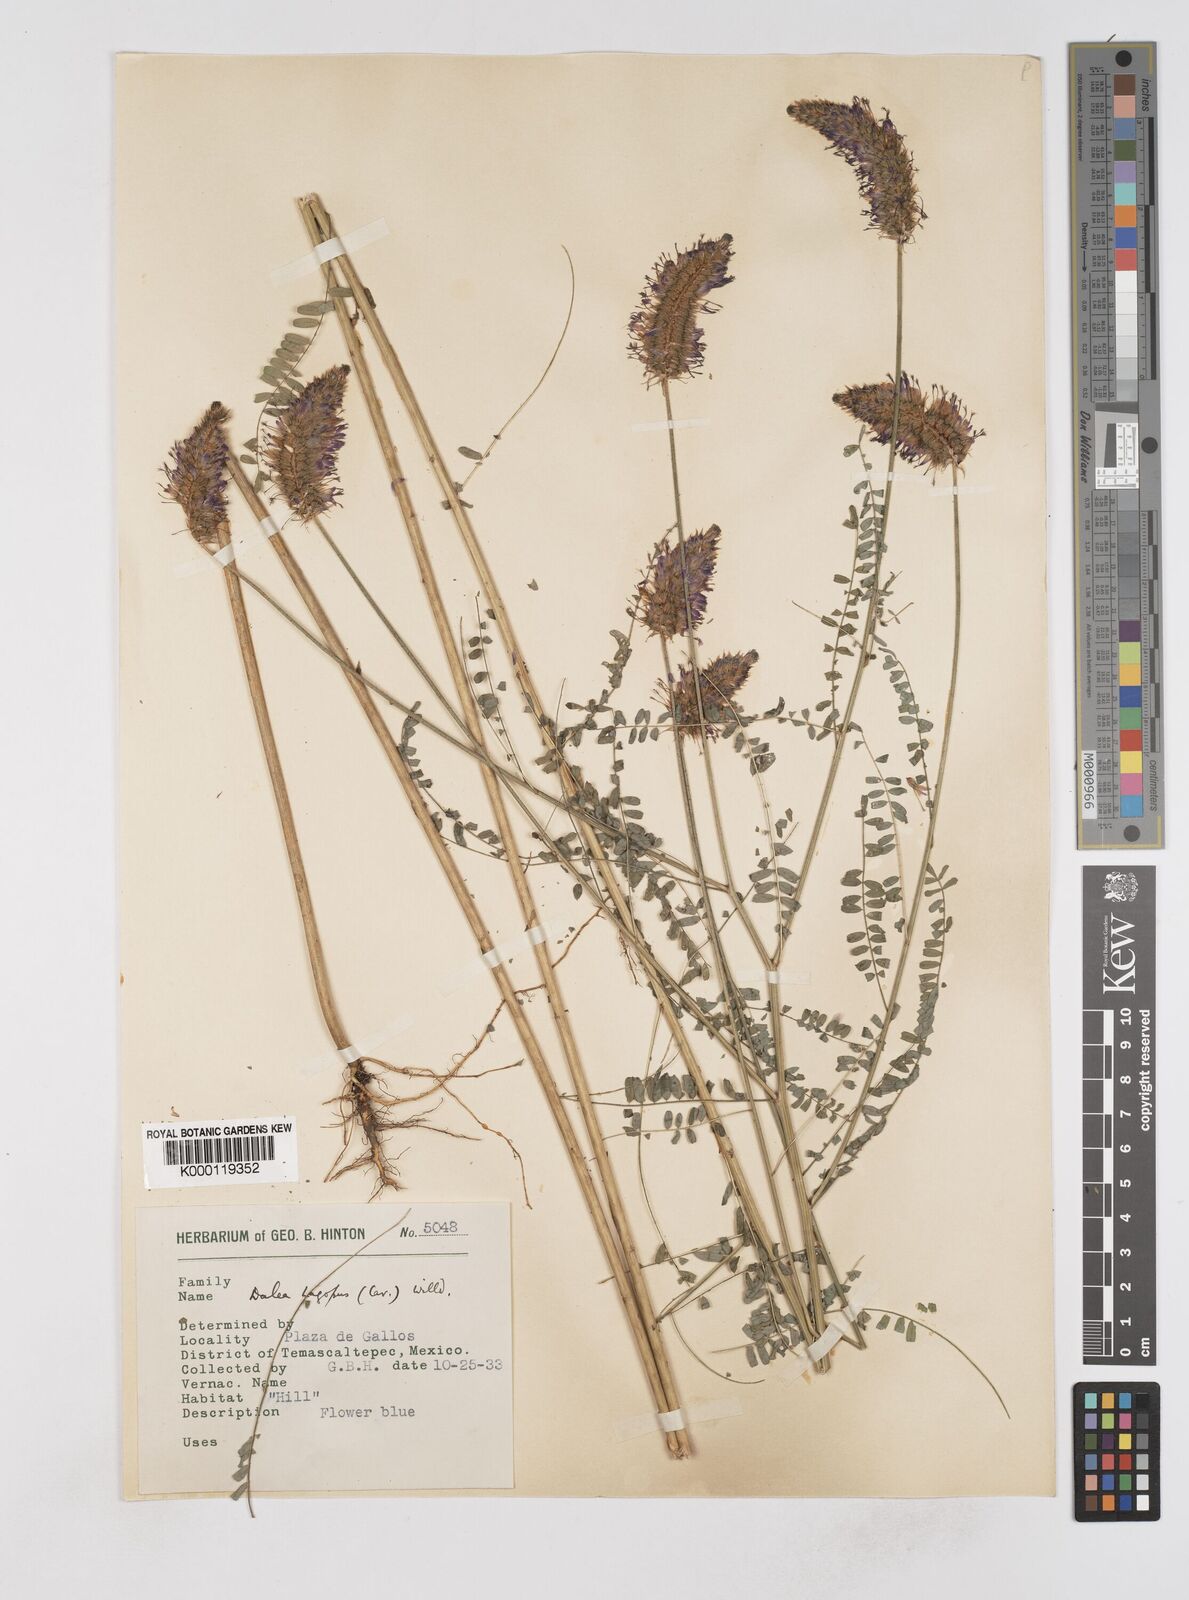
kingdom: Plantae
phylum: Tracheophyta
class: Magnoliopsida
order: Fabales
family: Fabaceae
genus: Dalea
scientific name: Dalea leporina
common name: Foxtail dalea
